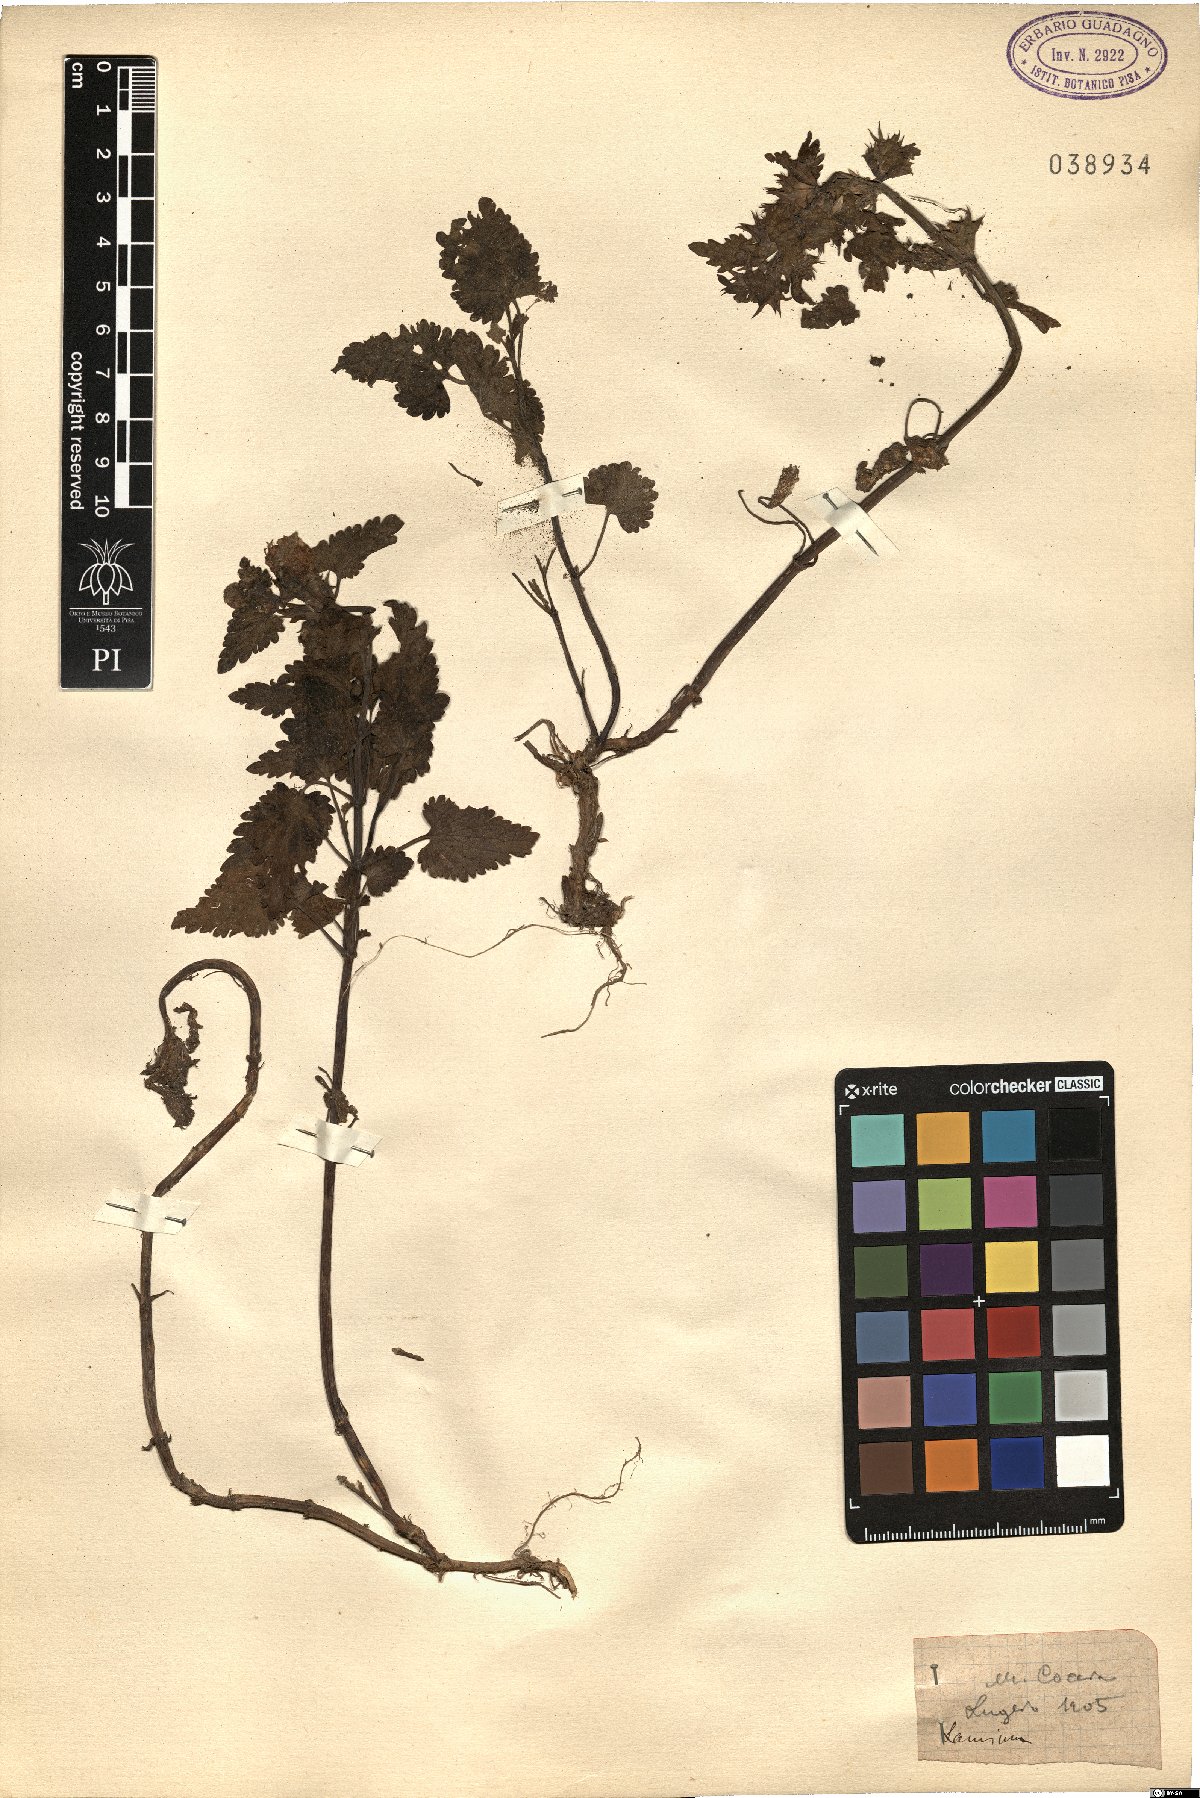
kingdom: Plantae
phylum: Tracheophyta
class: Magnoliopsida
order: Lamiales
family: Lamiaceae
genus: Lamium
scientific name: Lamium
